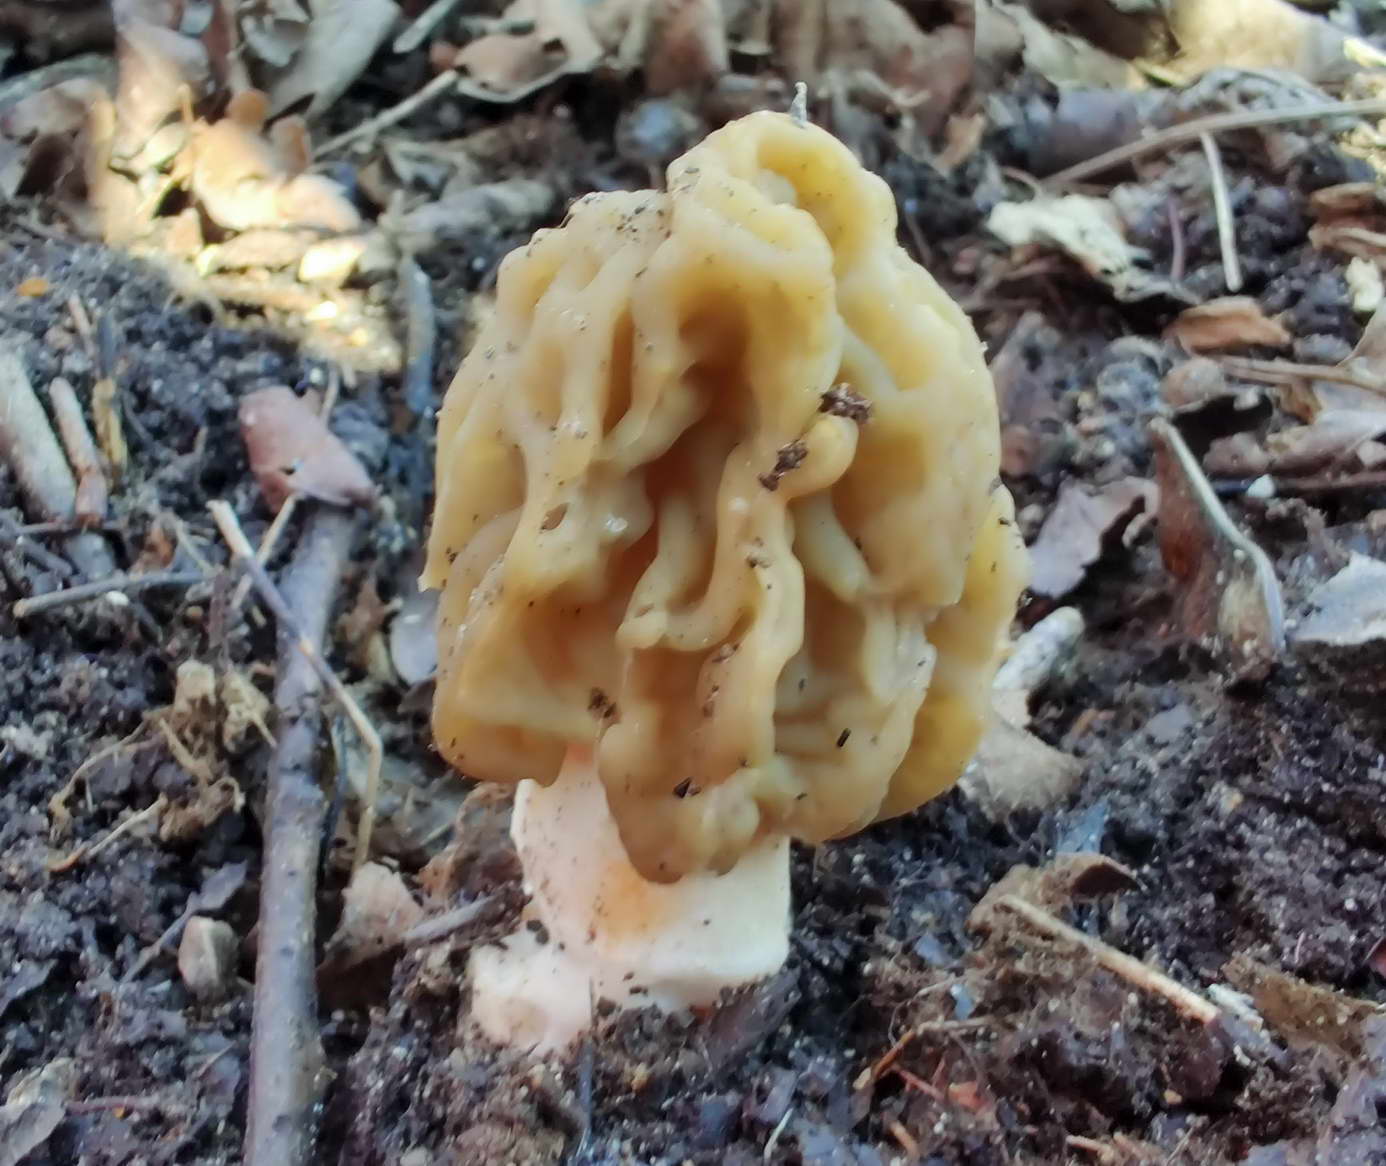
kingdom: Fungi
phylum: Ascomycota
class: Pezizomycetes
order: Pezizales
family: Morchellaceae
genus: Verpa
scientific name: Verpa bohemica
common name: rynket klokkemorkel
